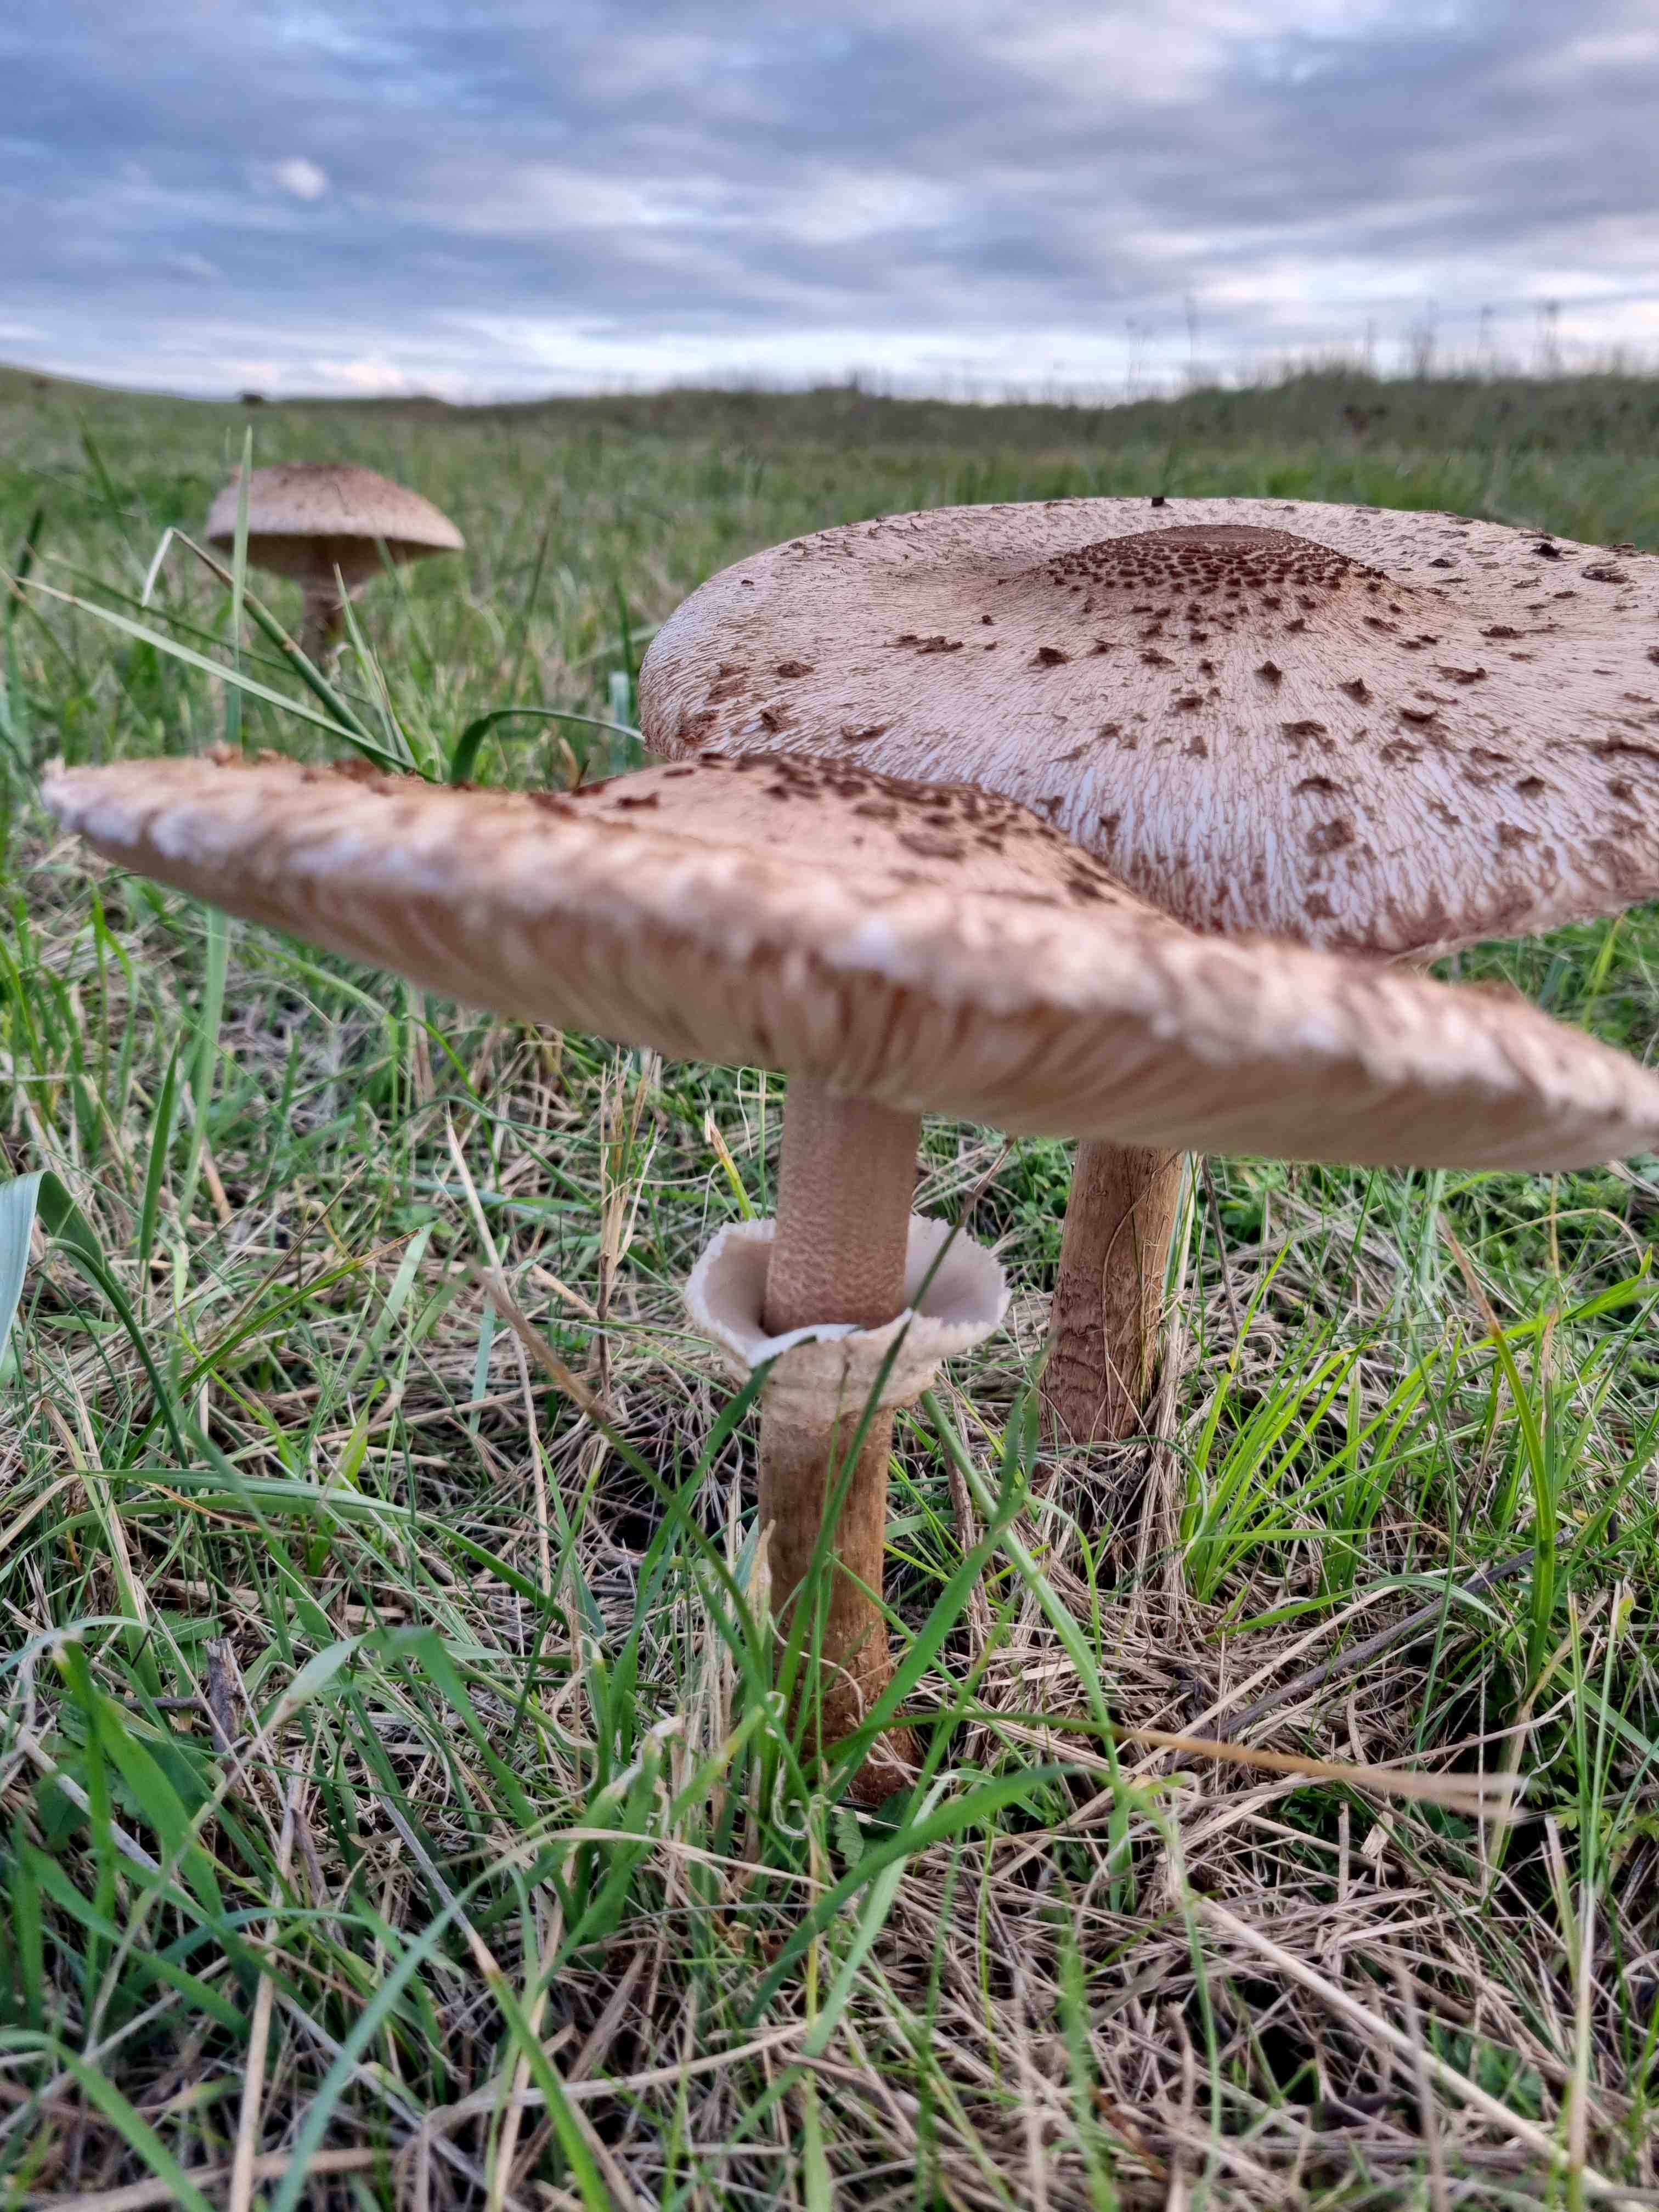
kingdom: Fungi
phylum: Basidiomycota
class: Agaricomycetes
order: Agaricales
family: Agaricaceae
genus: Macrolepiota
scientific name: Macrolepiota procera
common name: stor kæmpeparasolhat
